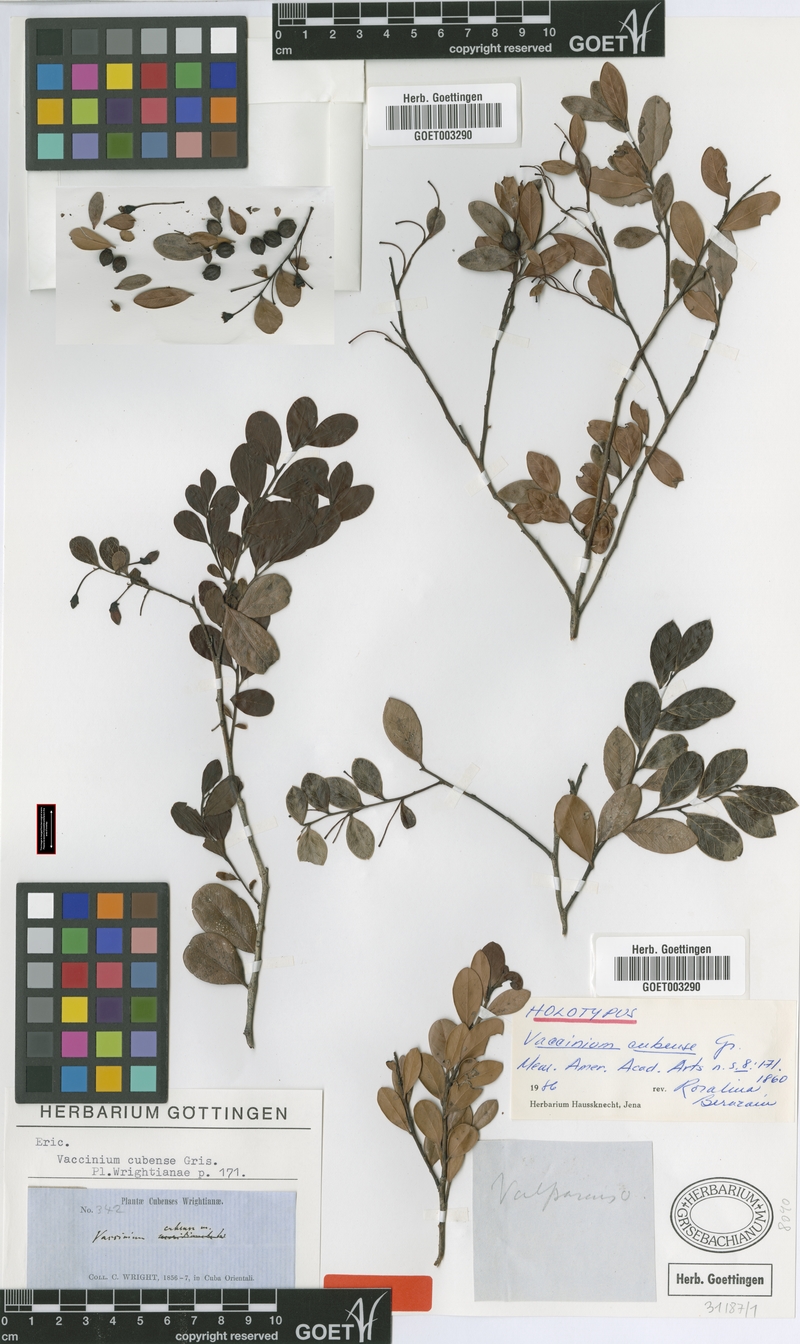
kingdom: Plantae
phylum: Tracheophyta
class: Magnoliopsida
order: Ericales
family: Ericaceae
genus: Vaccinium
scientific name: Vaccinium cubense
